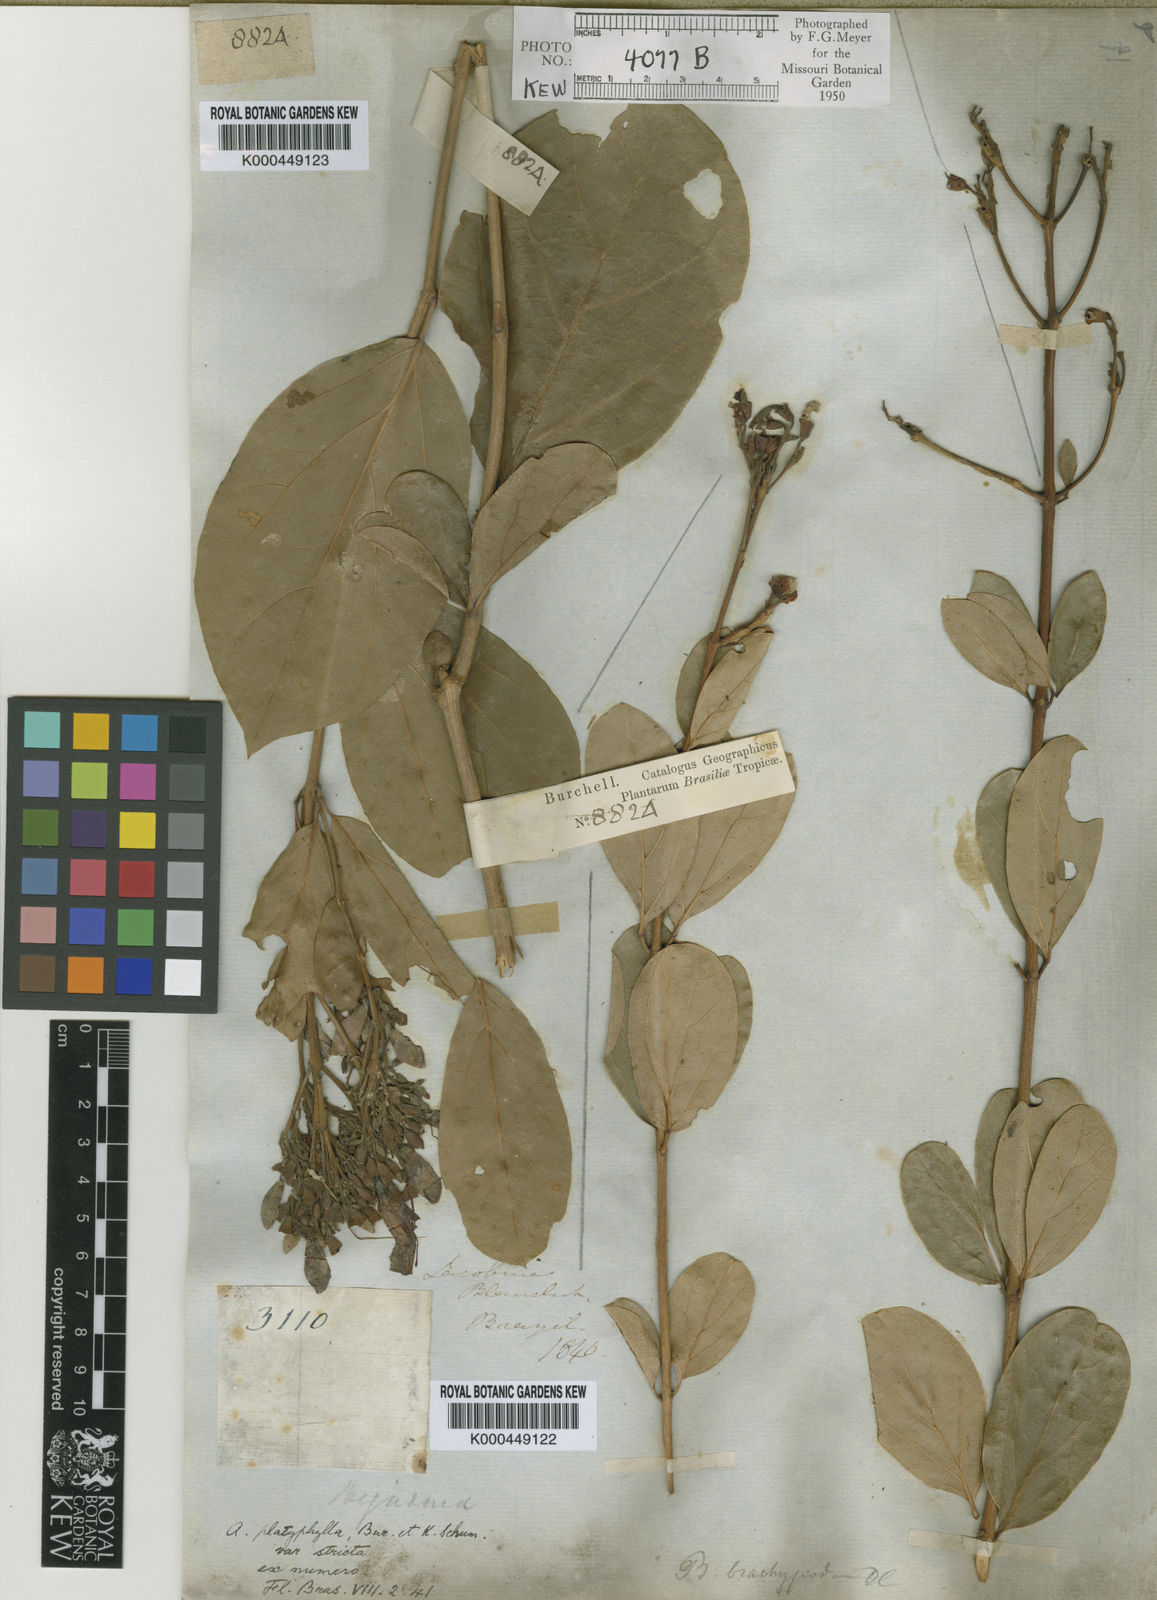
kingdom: Plantae
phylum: Tracheophyta
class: Magnoliopsida
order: Lamiales
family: Bignoniaceae
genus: Fridericia
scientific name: Fridericia platyphylla
